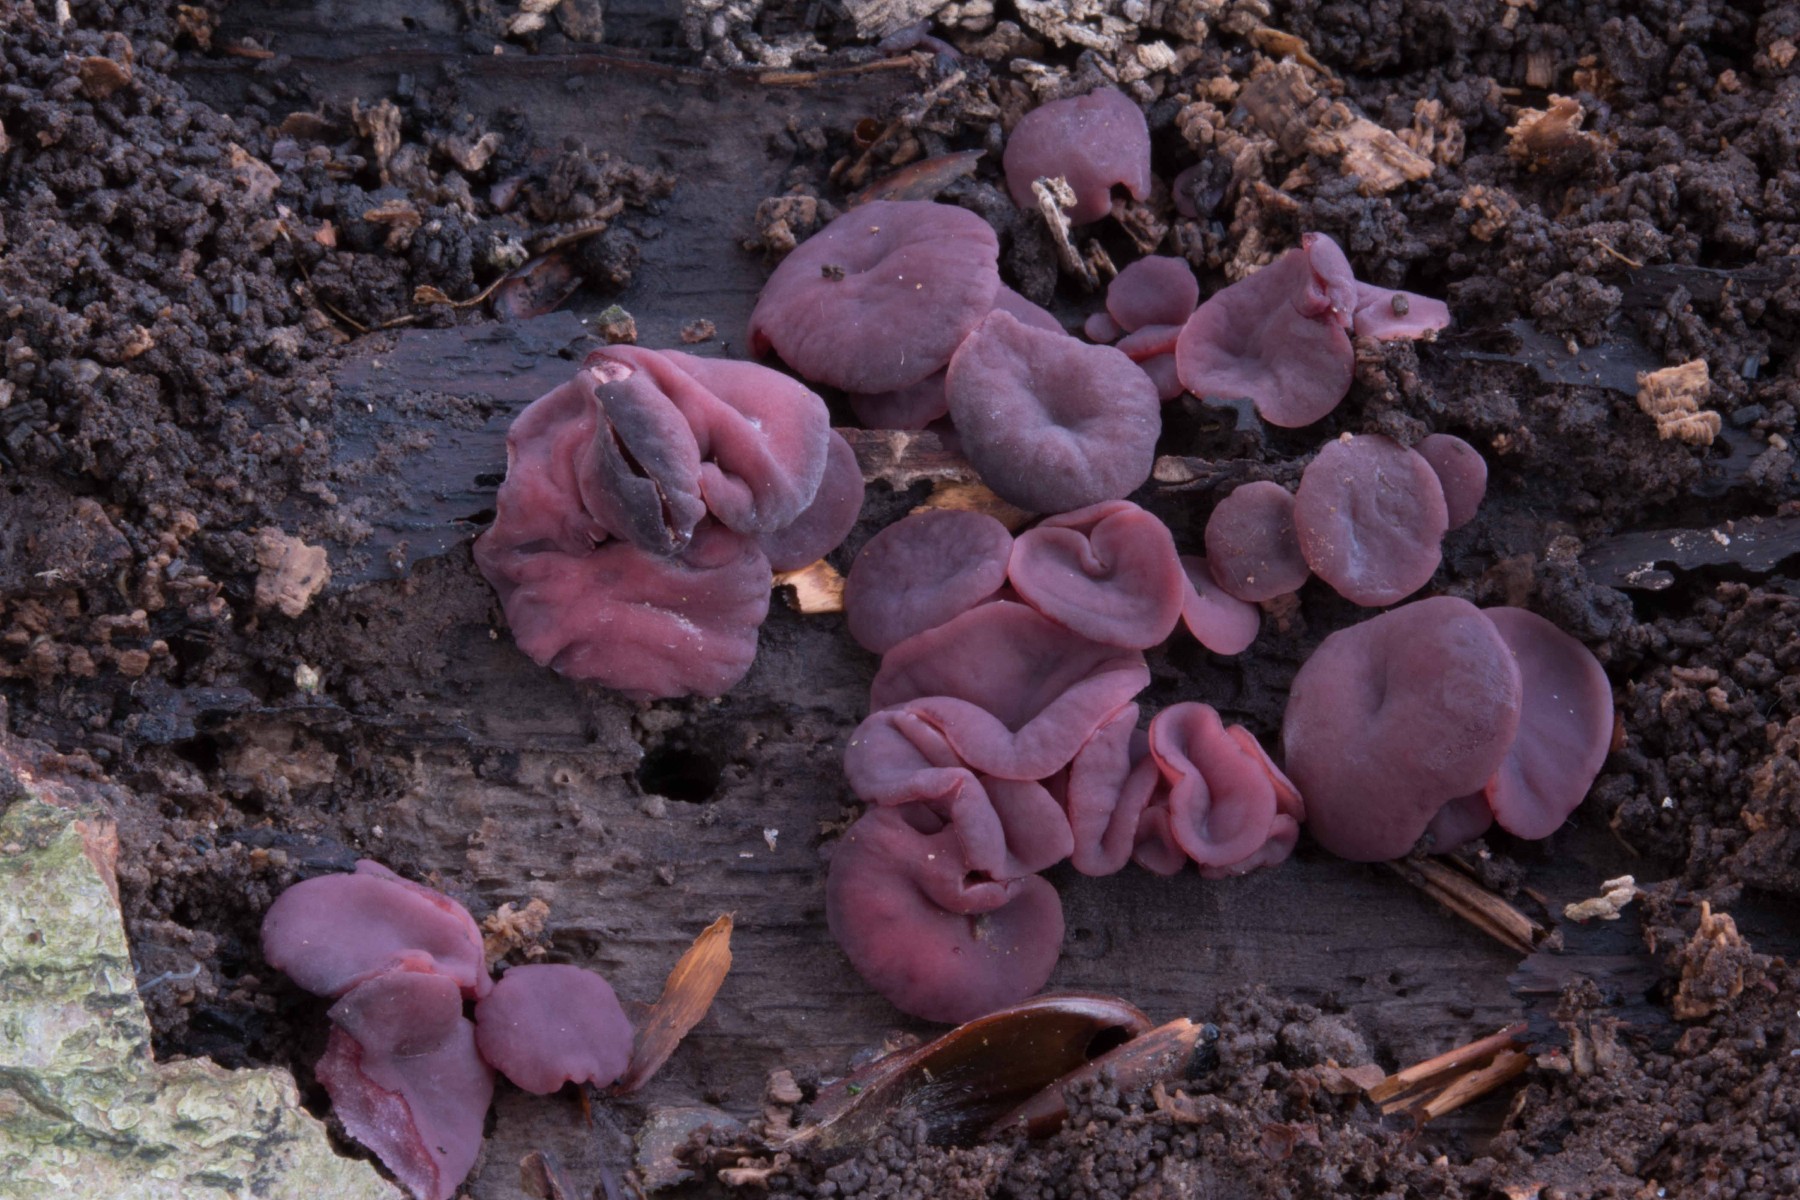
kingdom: Fungi
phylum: Ascomycota
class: Leotiomycetes
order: Helotiales
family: Gelatinodiscaceae
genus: Ascocoryne
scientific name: Ascocoryne cylichnium
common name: stor sejskive
